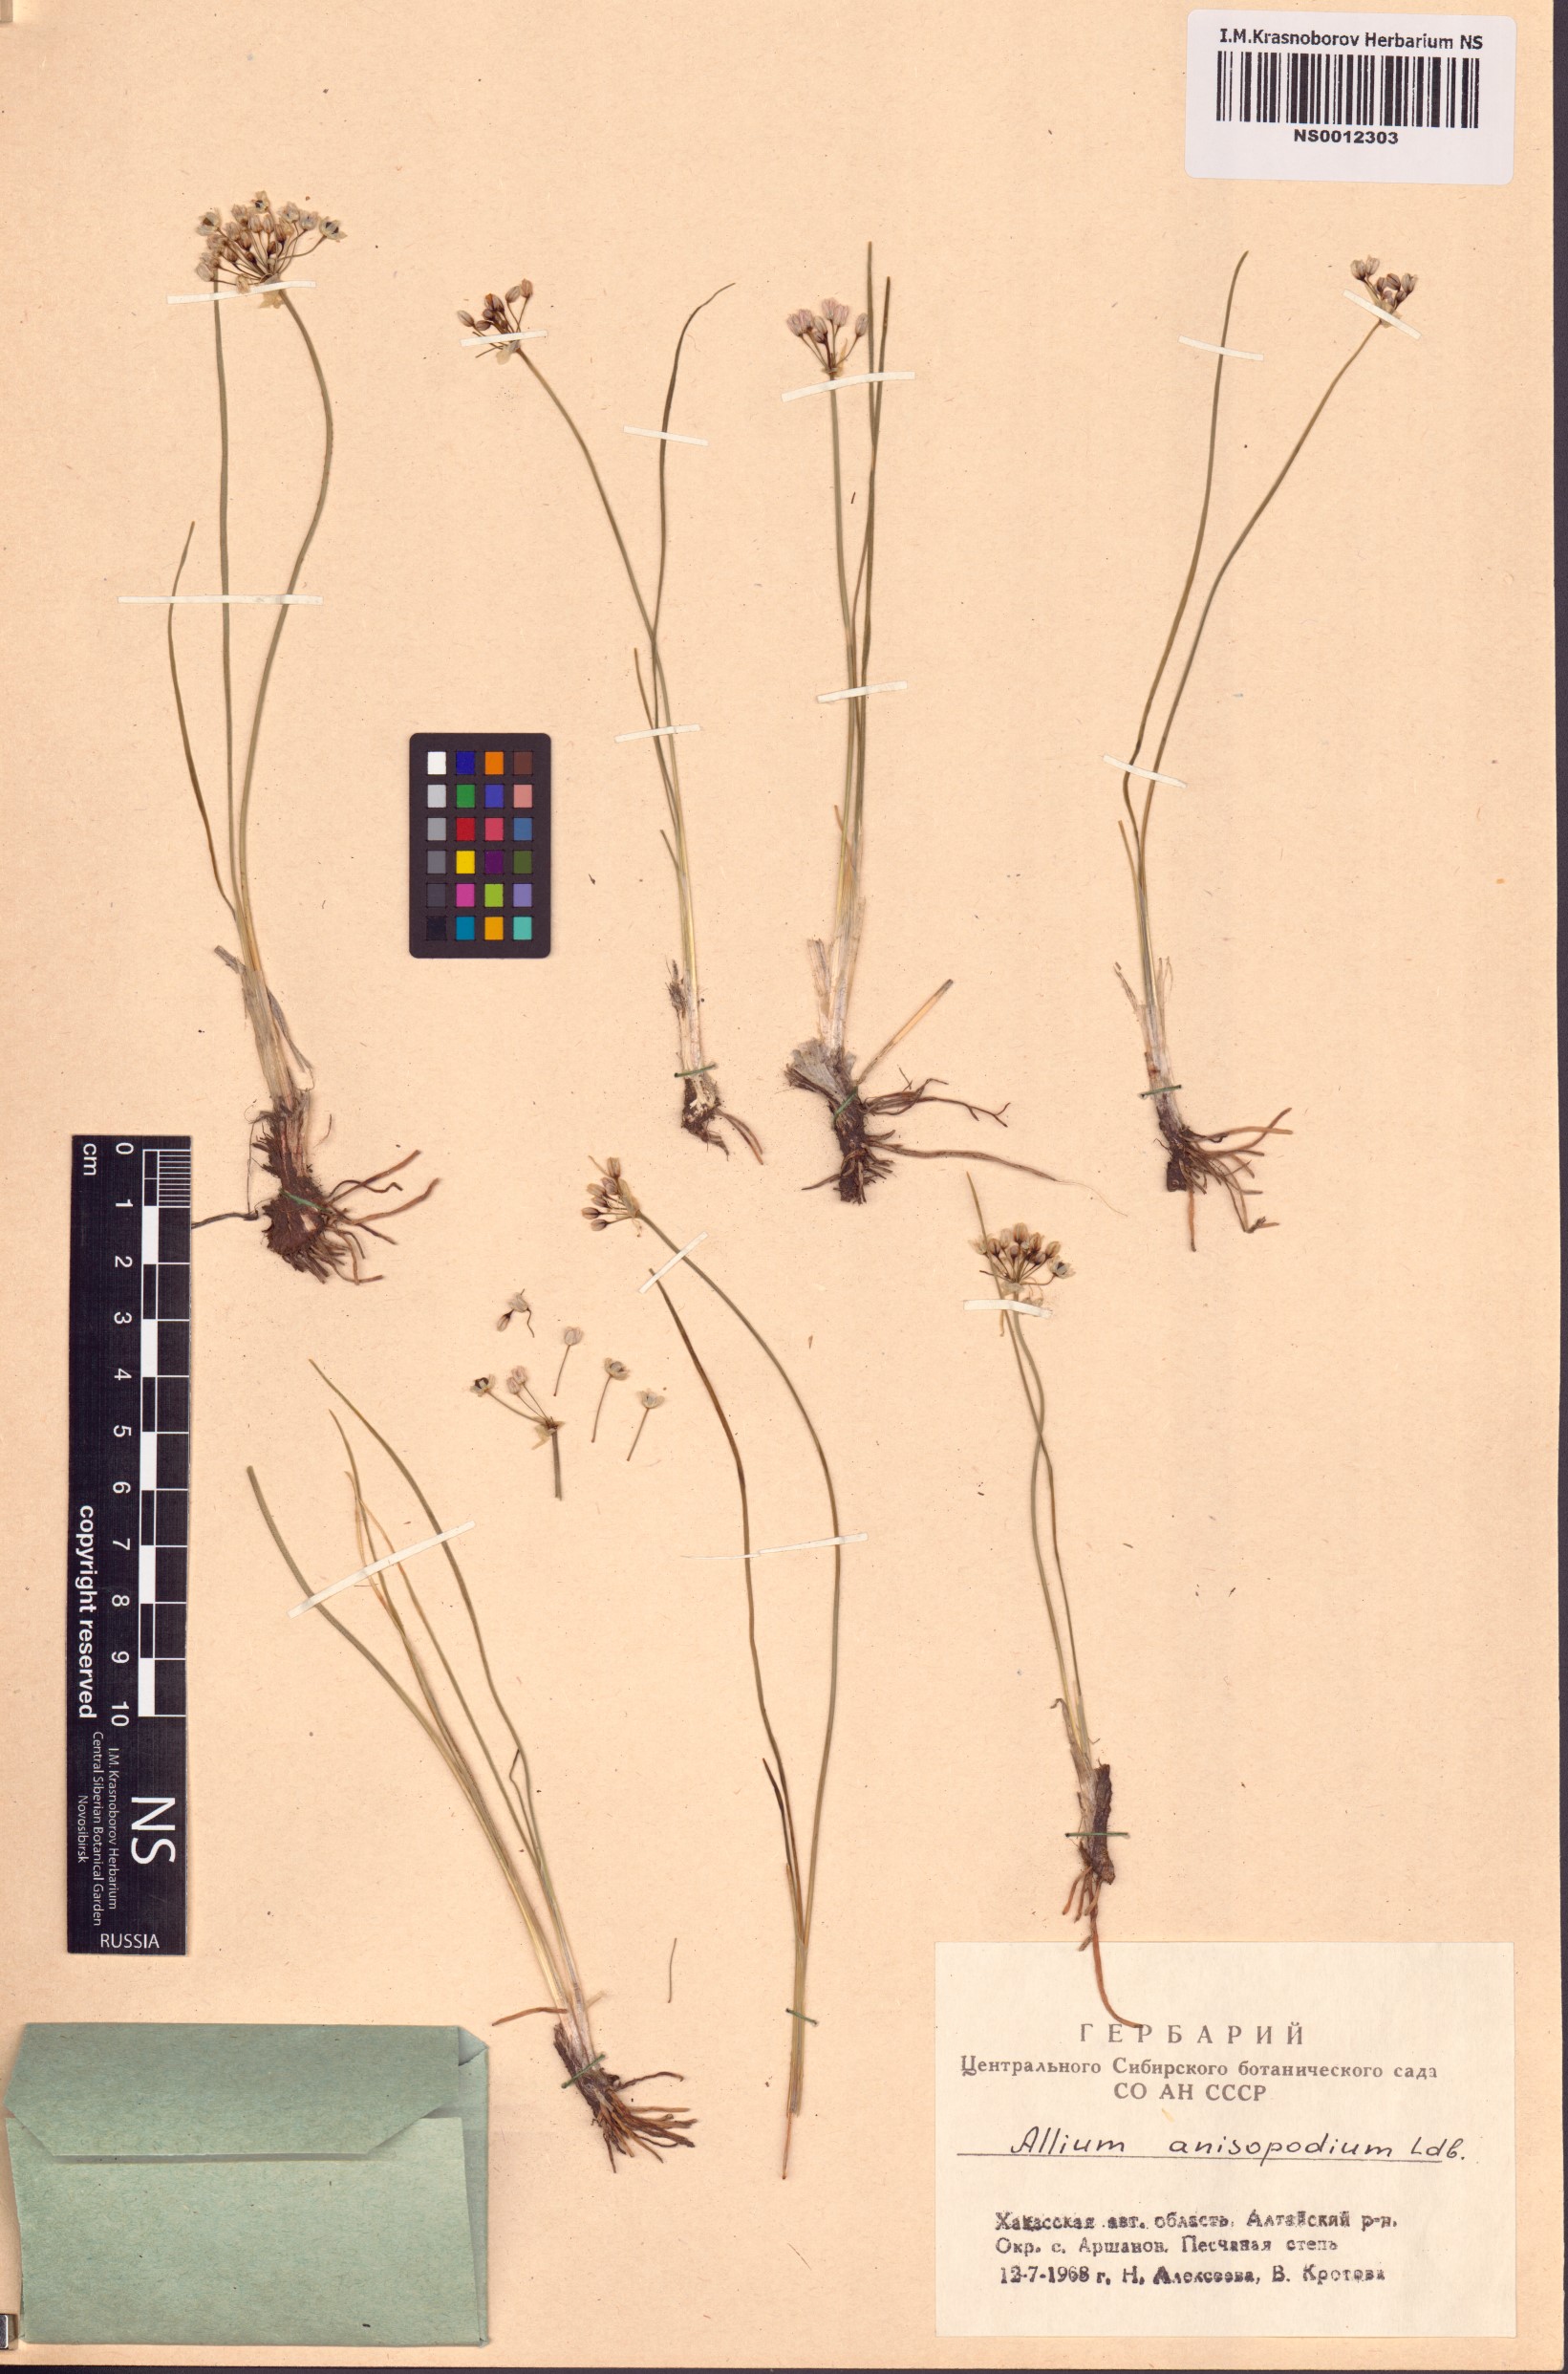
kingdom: Plantae
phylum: Tracheophyta
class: Liliopsida
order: Asparagales
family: Amaryllidaceae
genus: Allium
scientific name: Allium anisopodium
